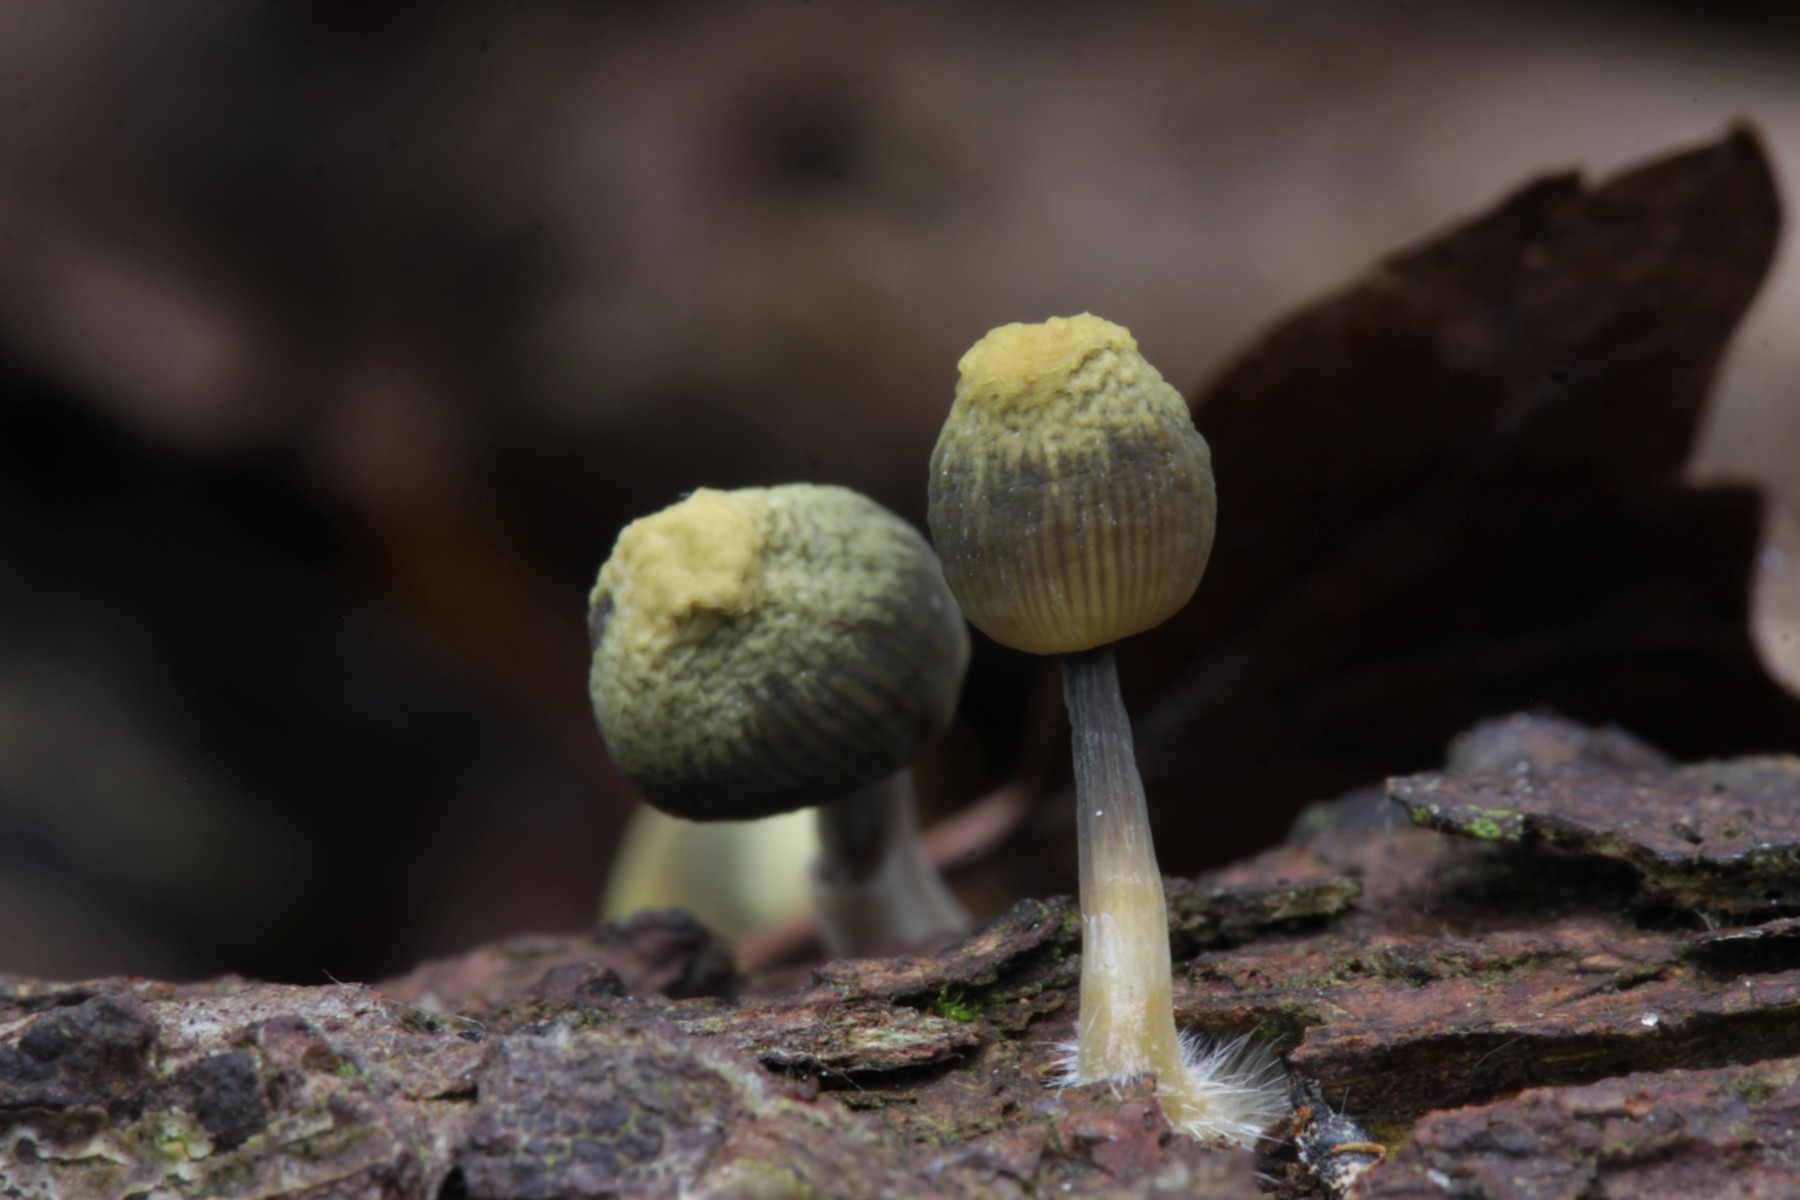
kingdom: Fungi
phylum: Basidiomycota
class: Agaricomycetes
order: Agaricales
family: Mycenaceae
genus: Mycena
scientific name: Mycena arcangeliana
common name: oliven-huesvamp
